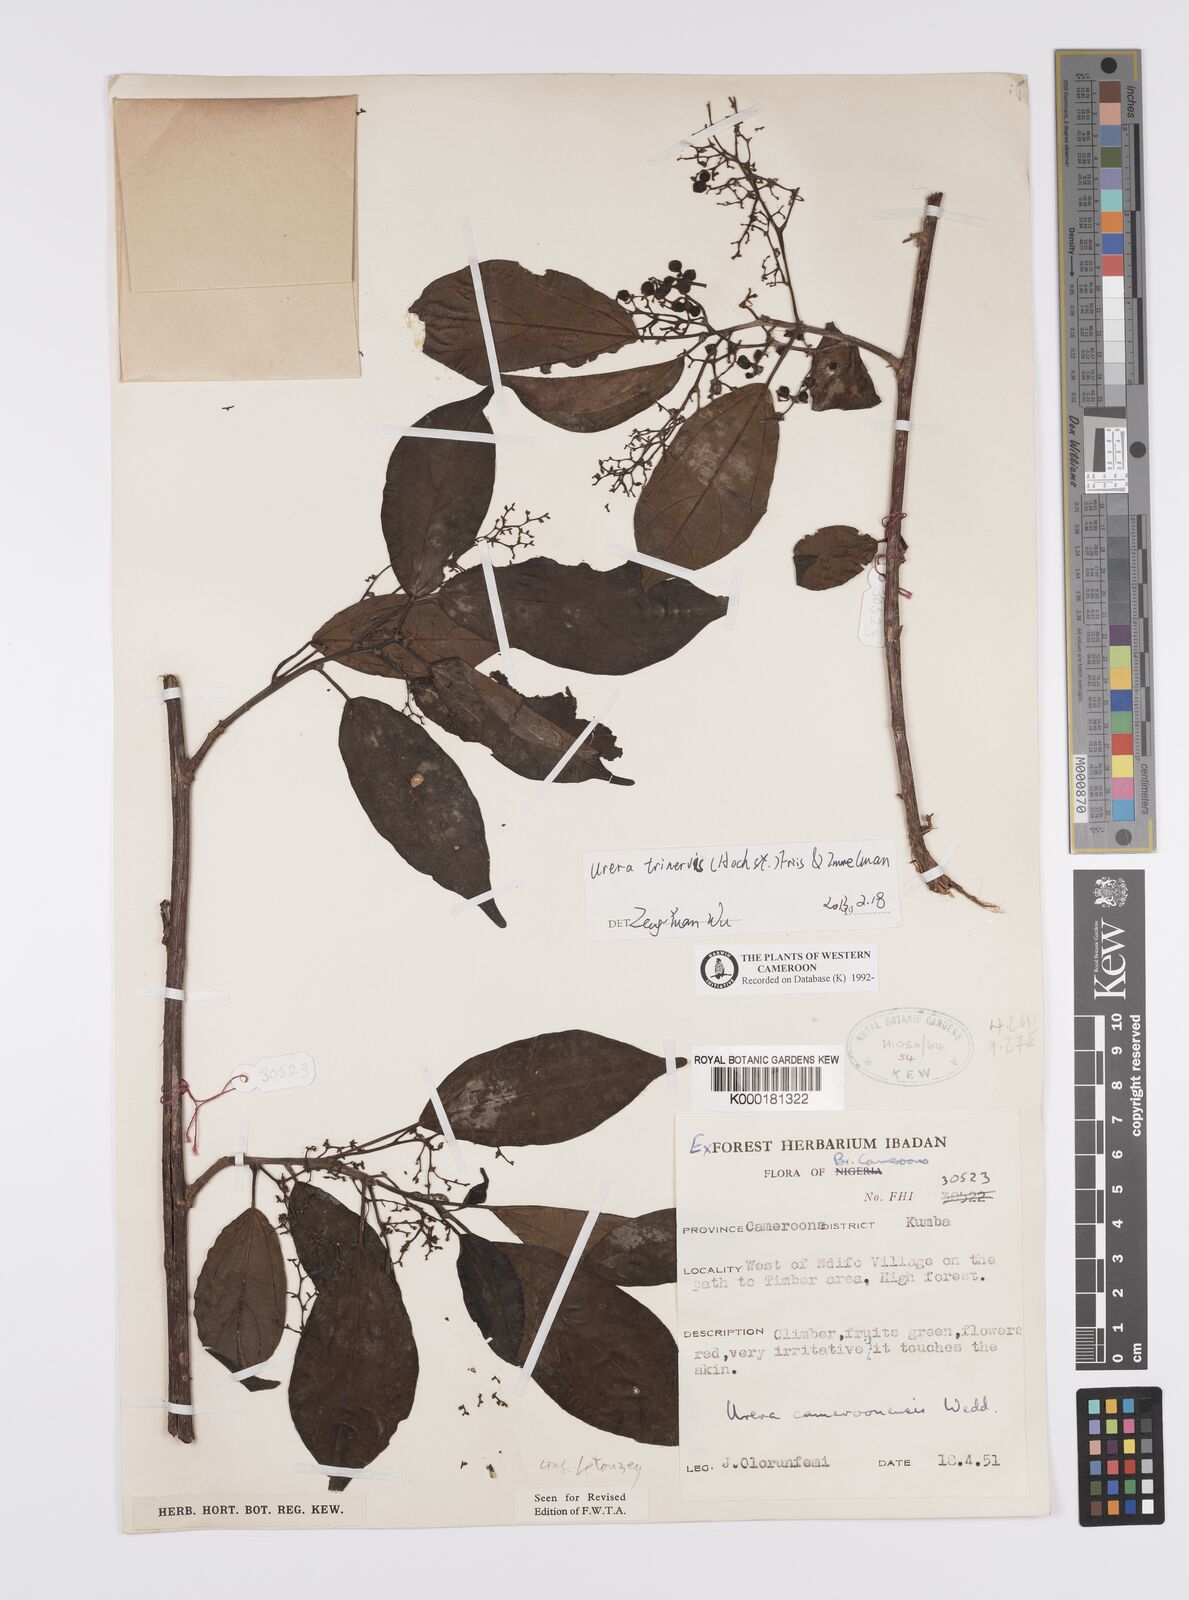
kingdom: Plantae
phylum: Tracheophyta
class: Magnoliopsida
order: Rosales
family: Urticaceae
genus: Scepocarpus
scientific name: Scepocarpus trinervis
